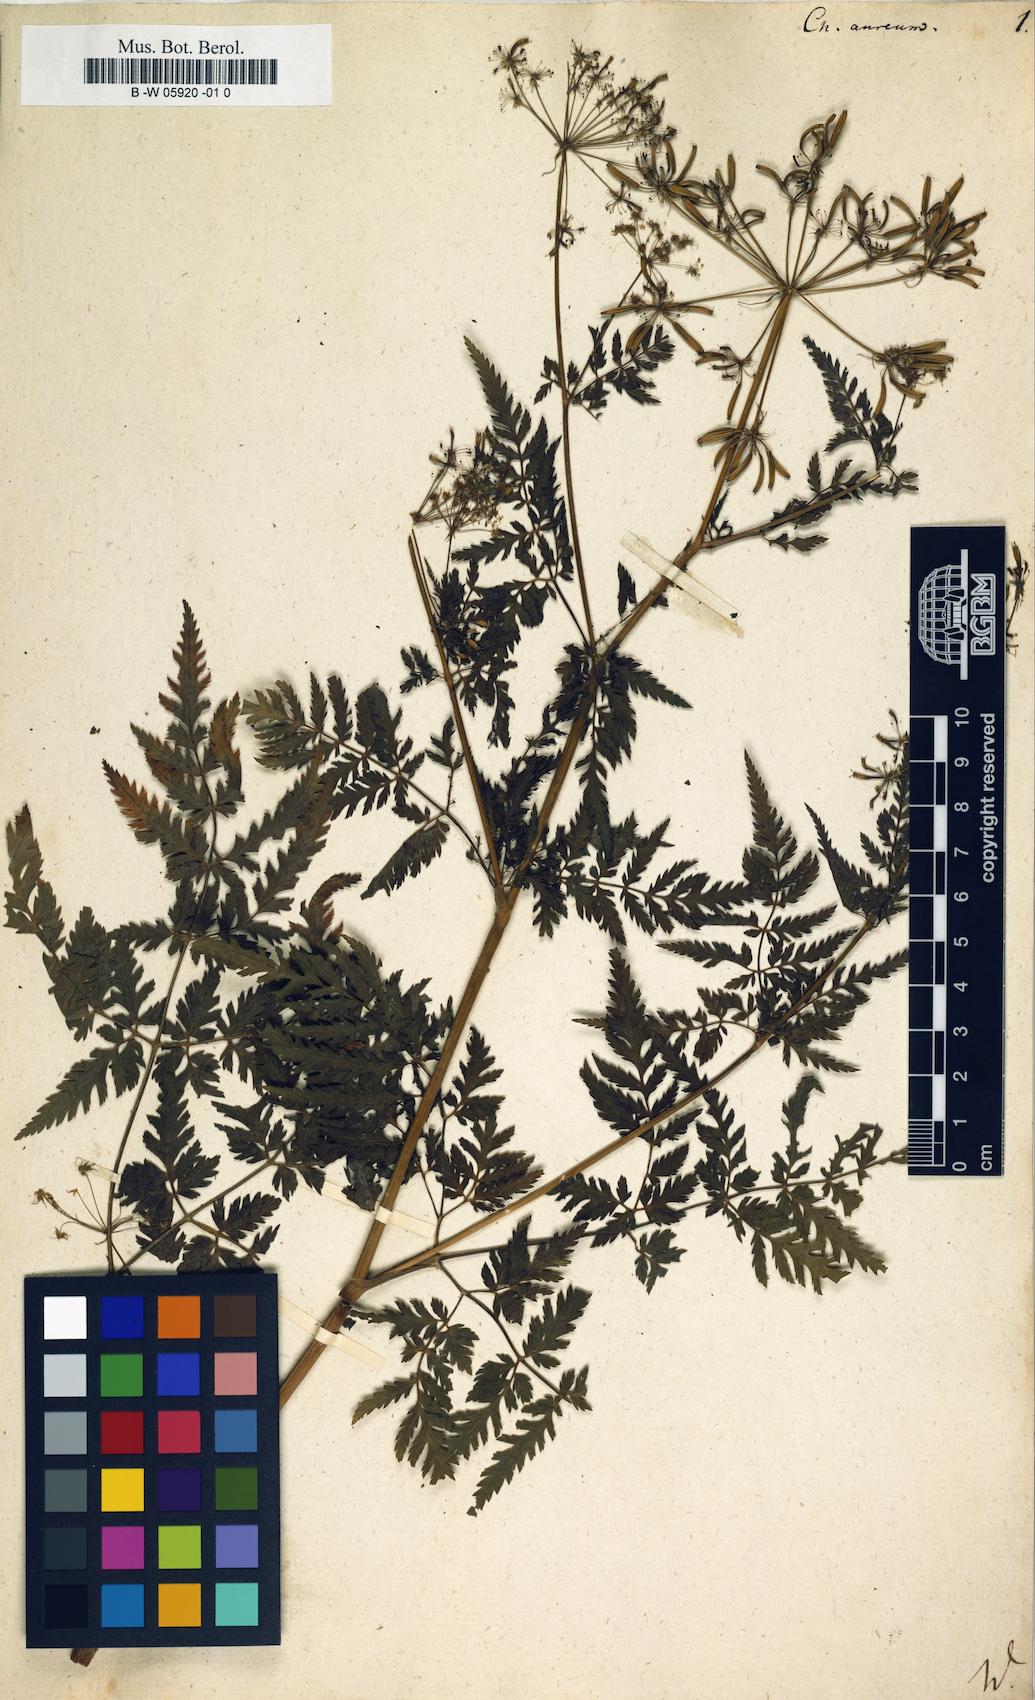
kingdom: Plantae
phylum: Tracheophyta
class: Magnoliopsida
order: Apiales
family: Apiaceae
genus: Chaerophyllum
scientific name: Chaerophyllum aureum
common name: Golden chervil
